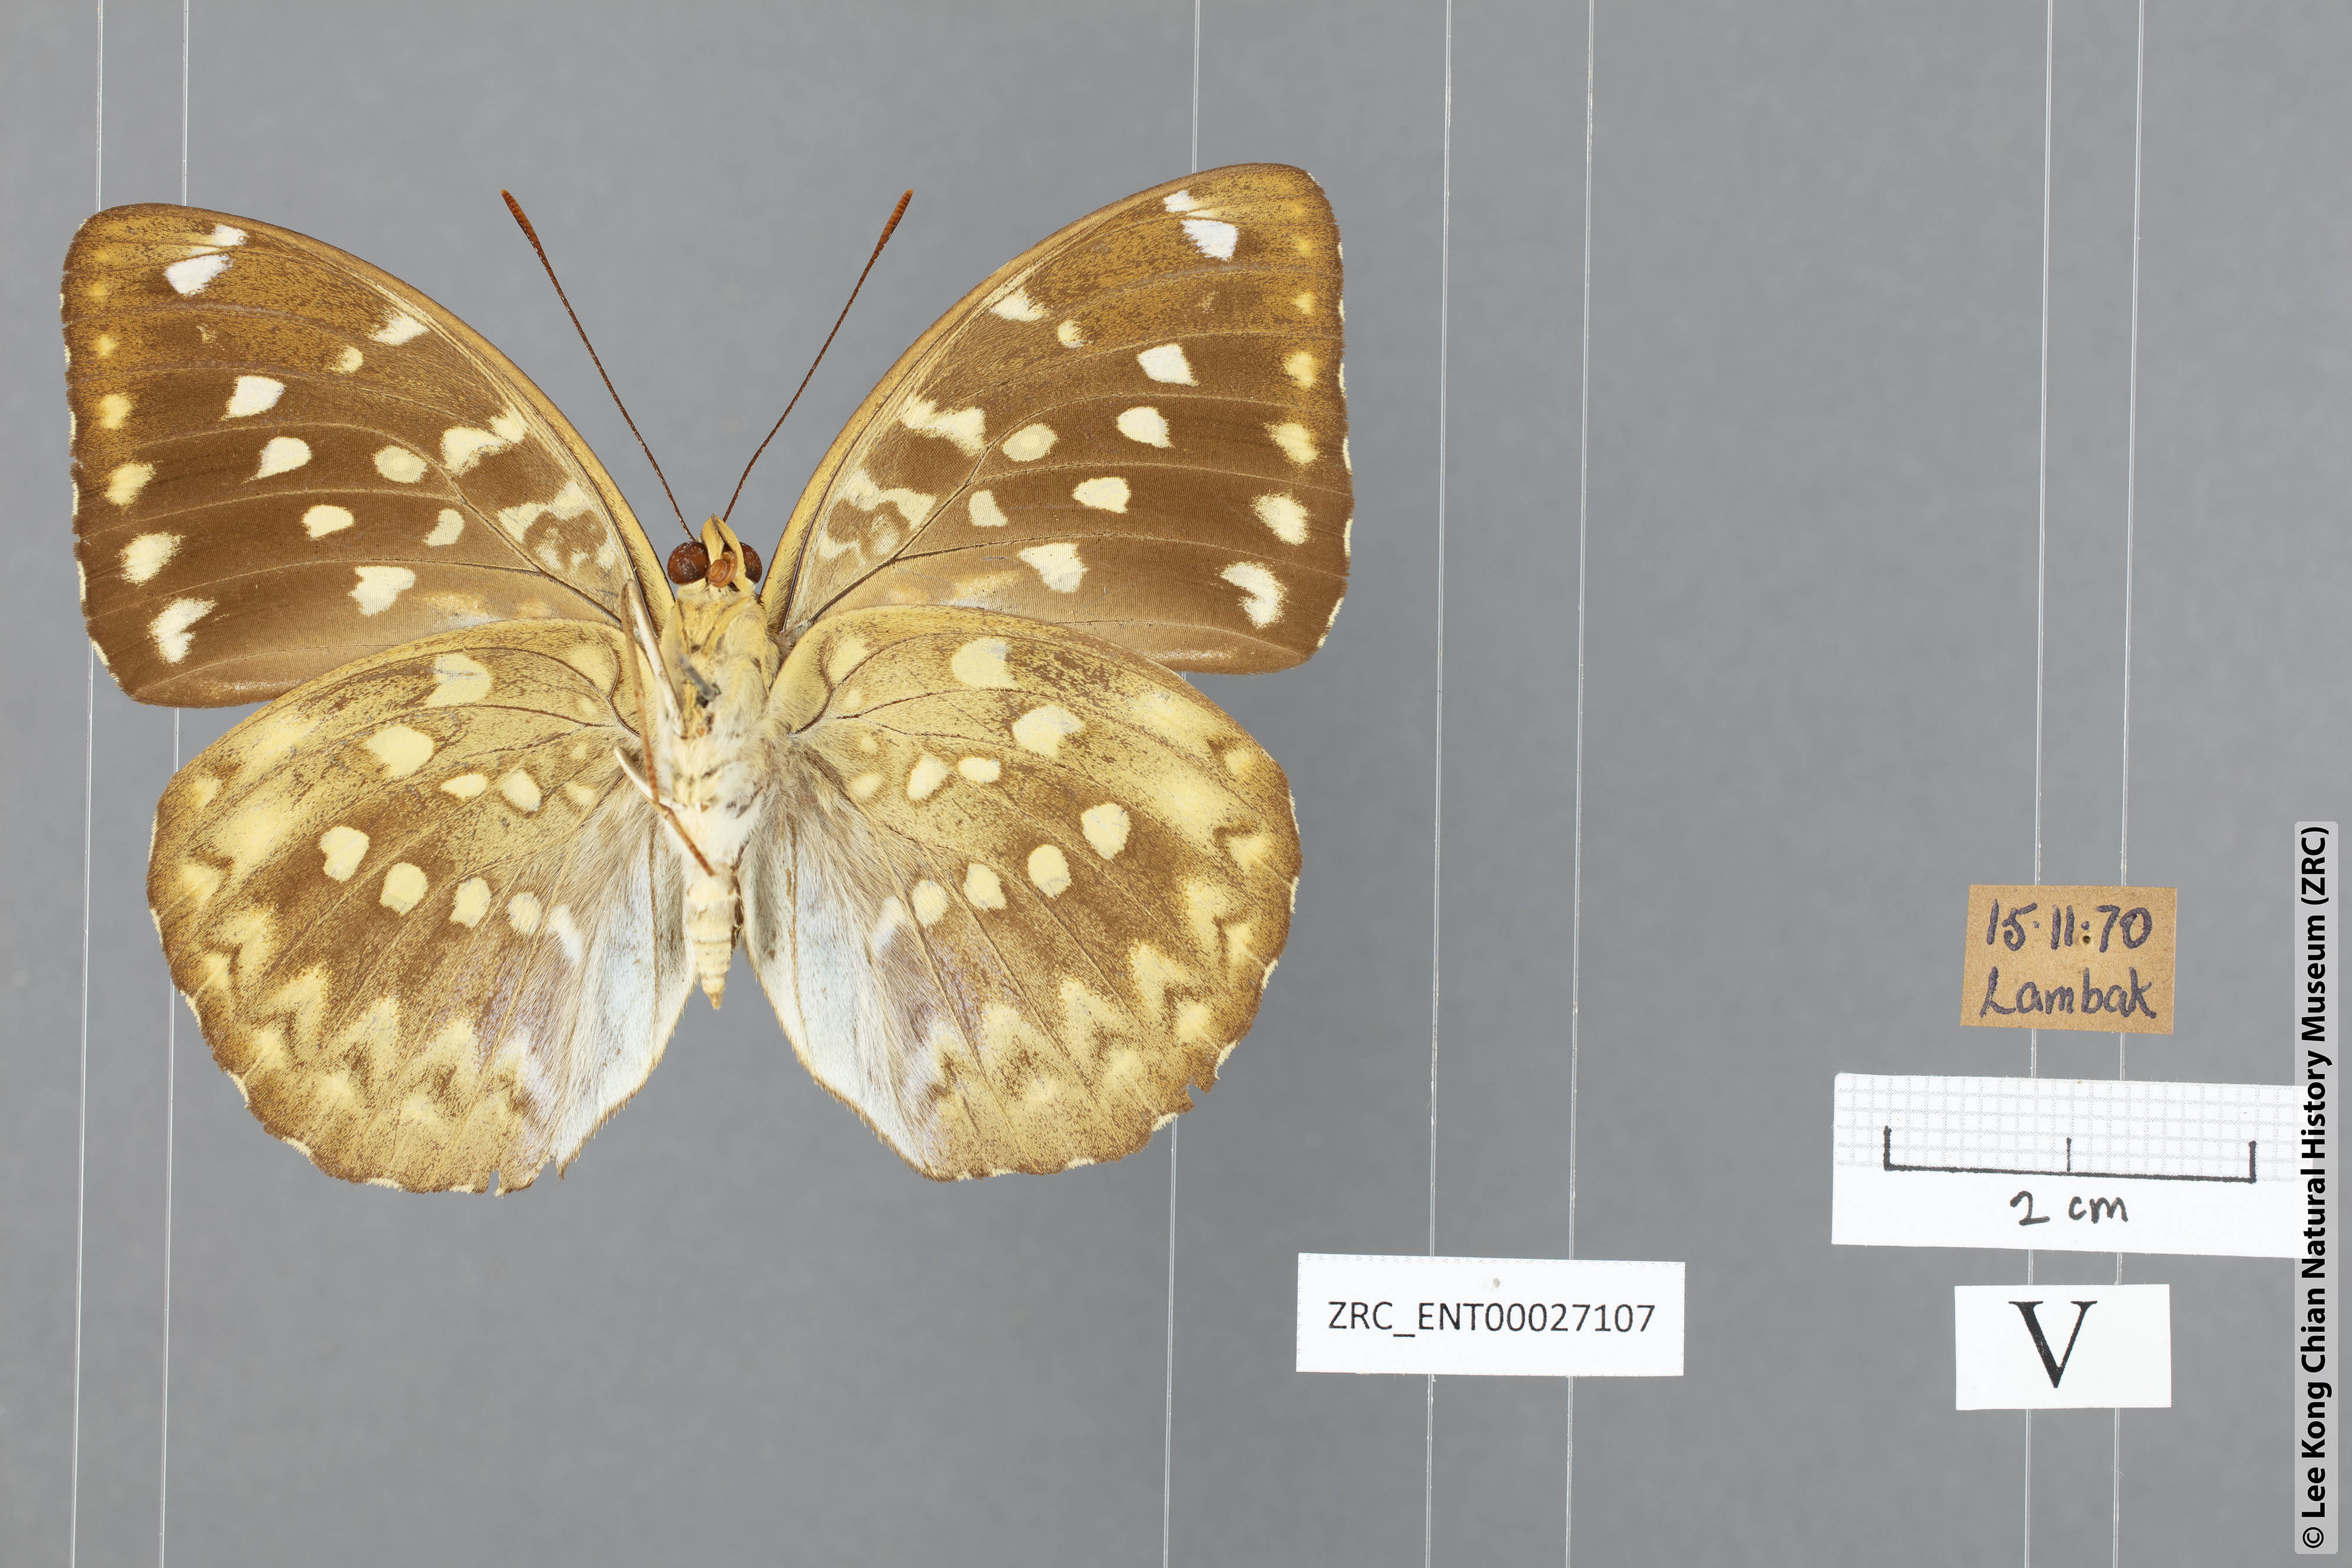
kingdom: Animalia
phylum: Arthropoda
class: Insecta
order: Lepidoptera
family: Nymphalidae
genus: Lexias
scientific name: Lexias canescens
